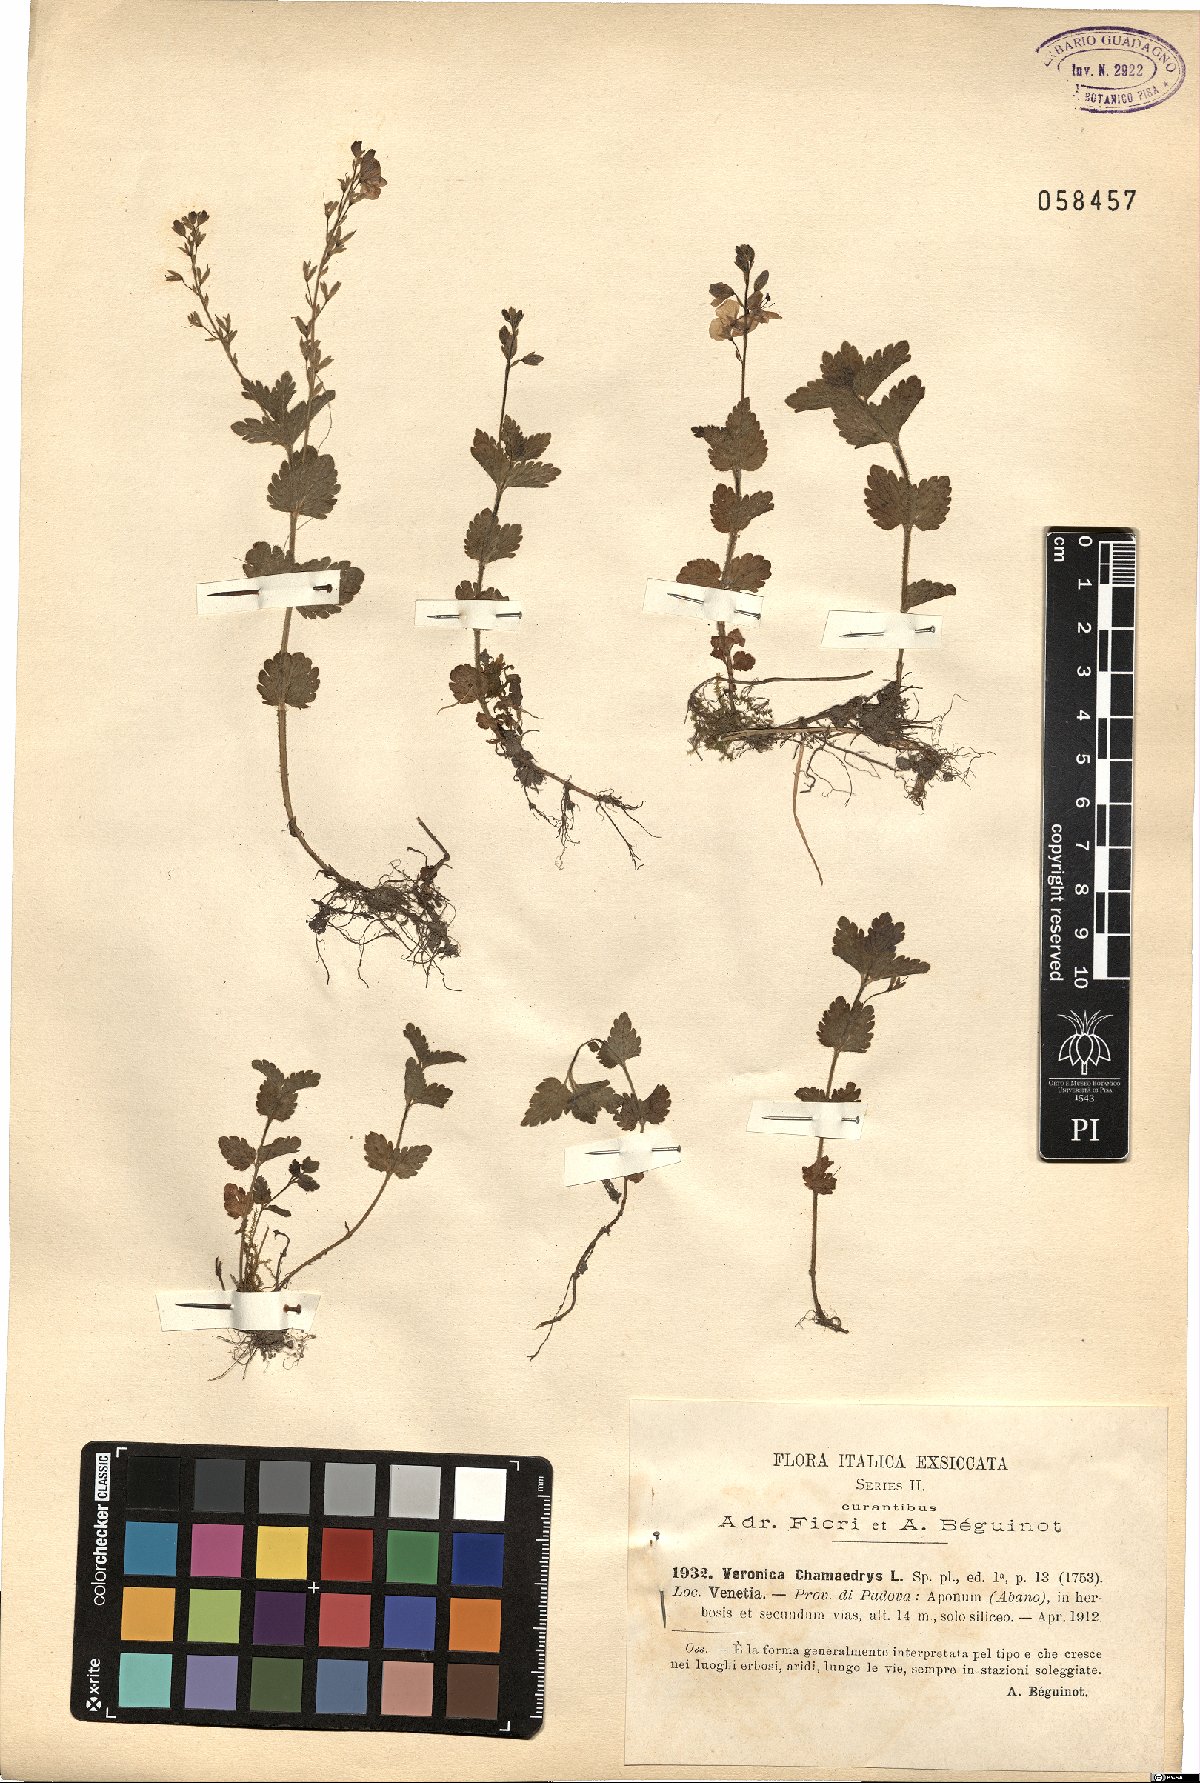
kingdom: Plantae
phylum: Tracheophyta
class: Magnoliopsida
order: Lamiales
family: Plantaginaceae
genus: Veronica
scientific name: Veronica chamaedrys
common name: Germander speedwell
